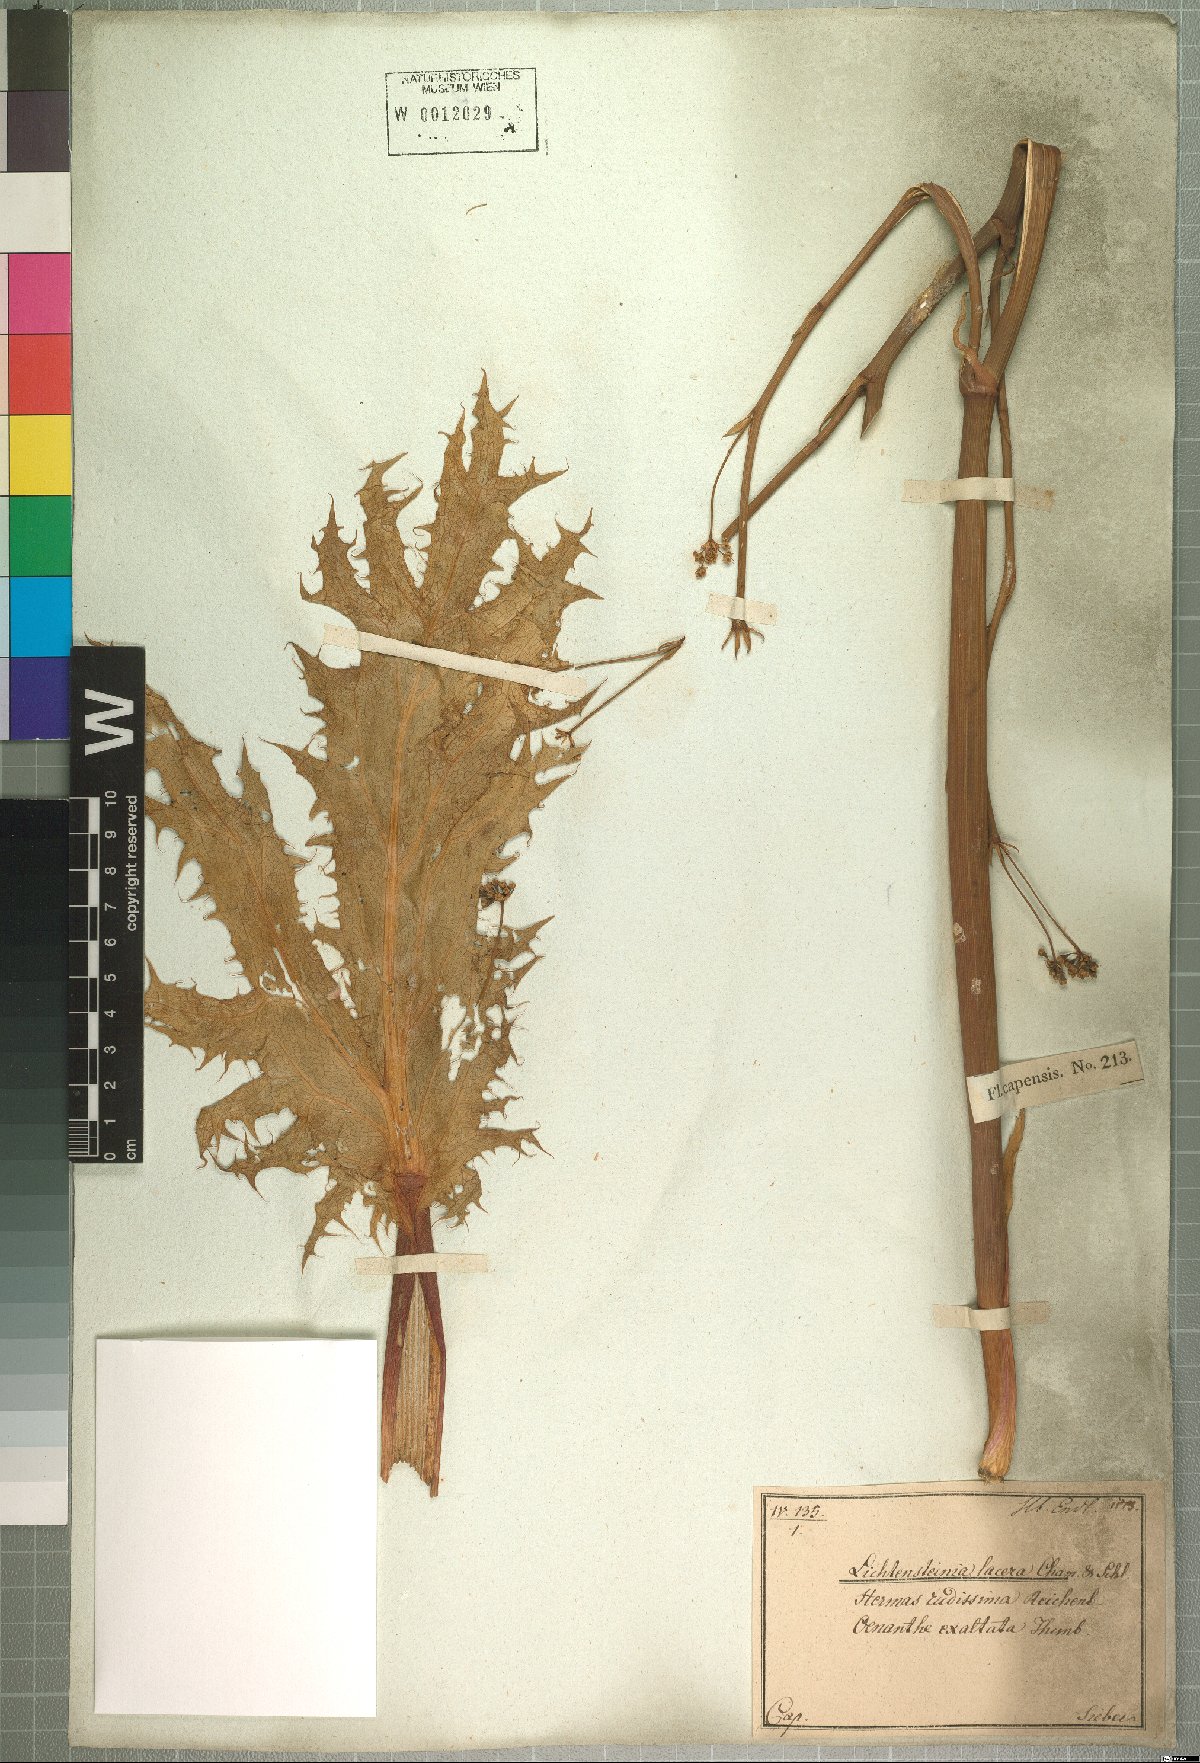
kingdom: Plantae
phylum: Tracheophyta
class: Magnoliopsida
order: Apiales
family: Apiaceae
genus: Lichtensteinia
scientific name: Lichtensteinia lacera
